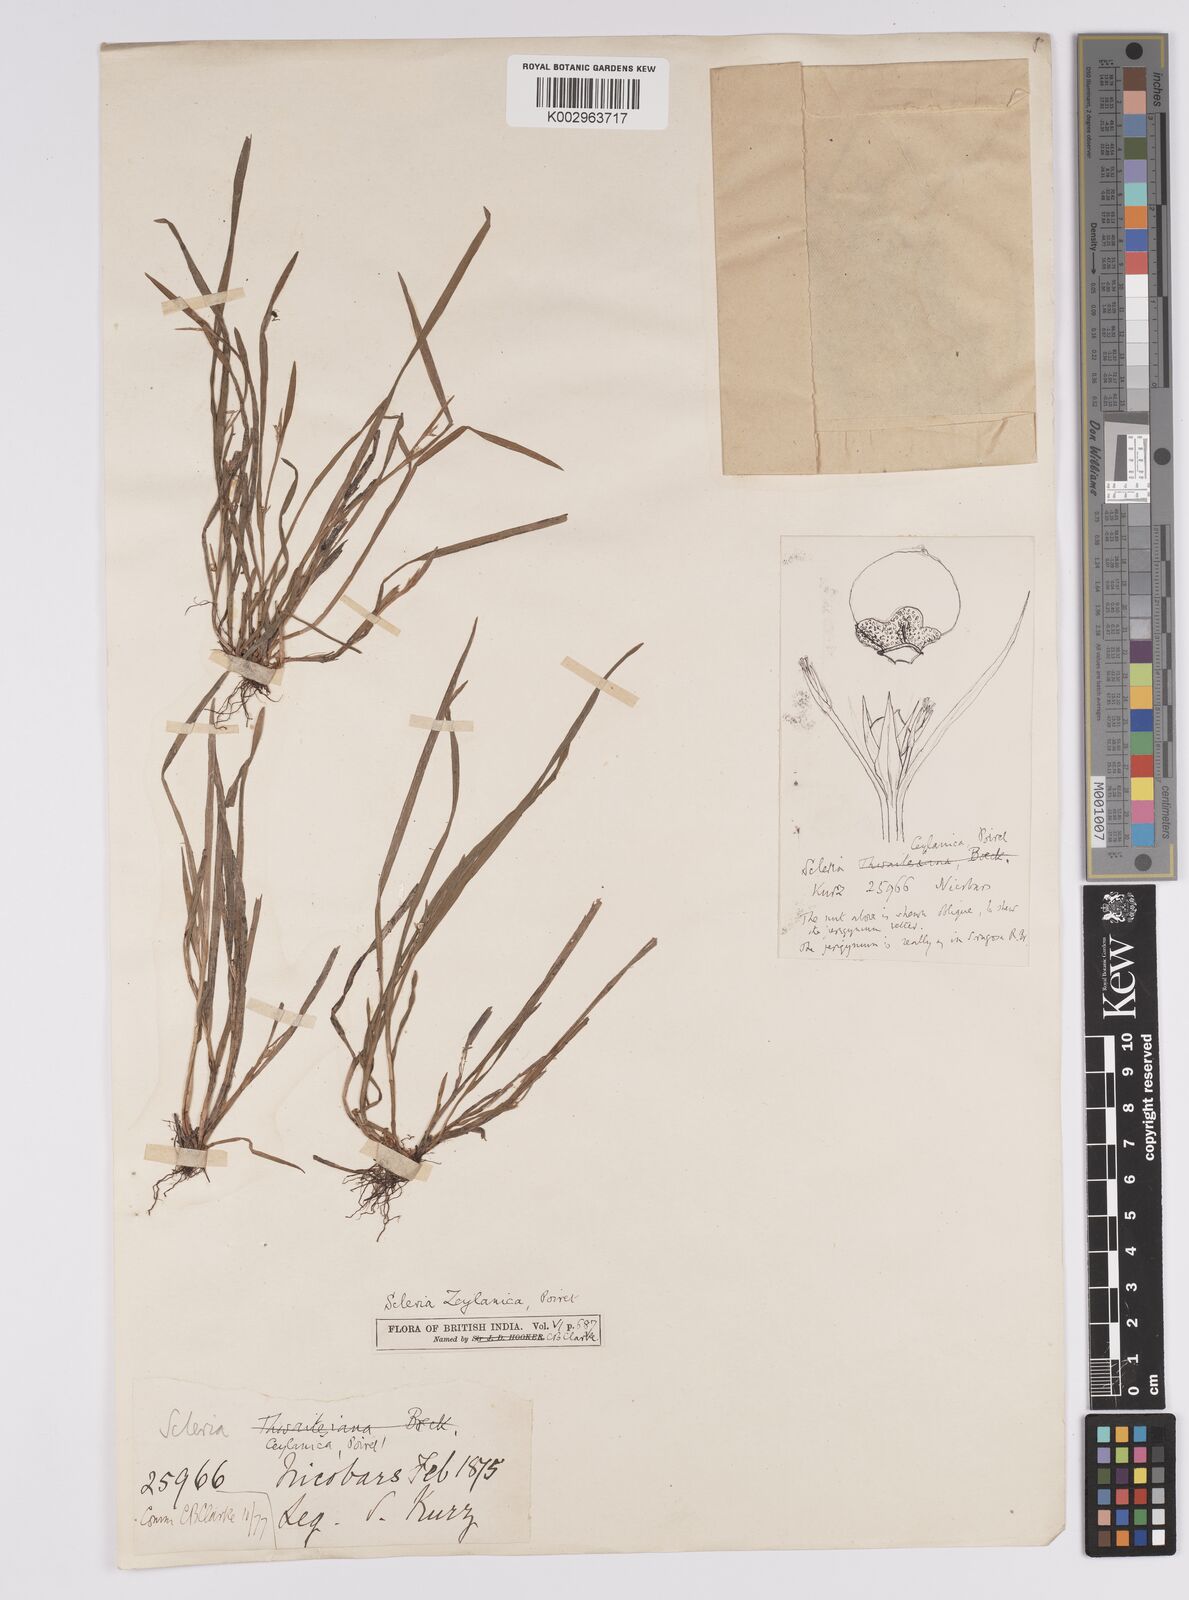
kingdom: Plantae
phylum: Tracheophyta
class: Liliopsida
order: Poales
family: Cyperaceae
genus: Scleria
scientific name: Scleria levis
